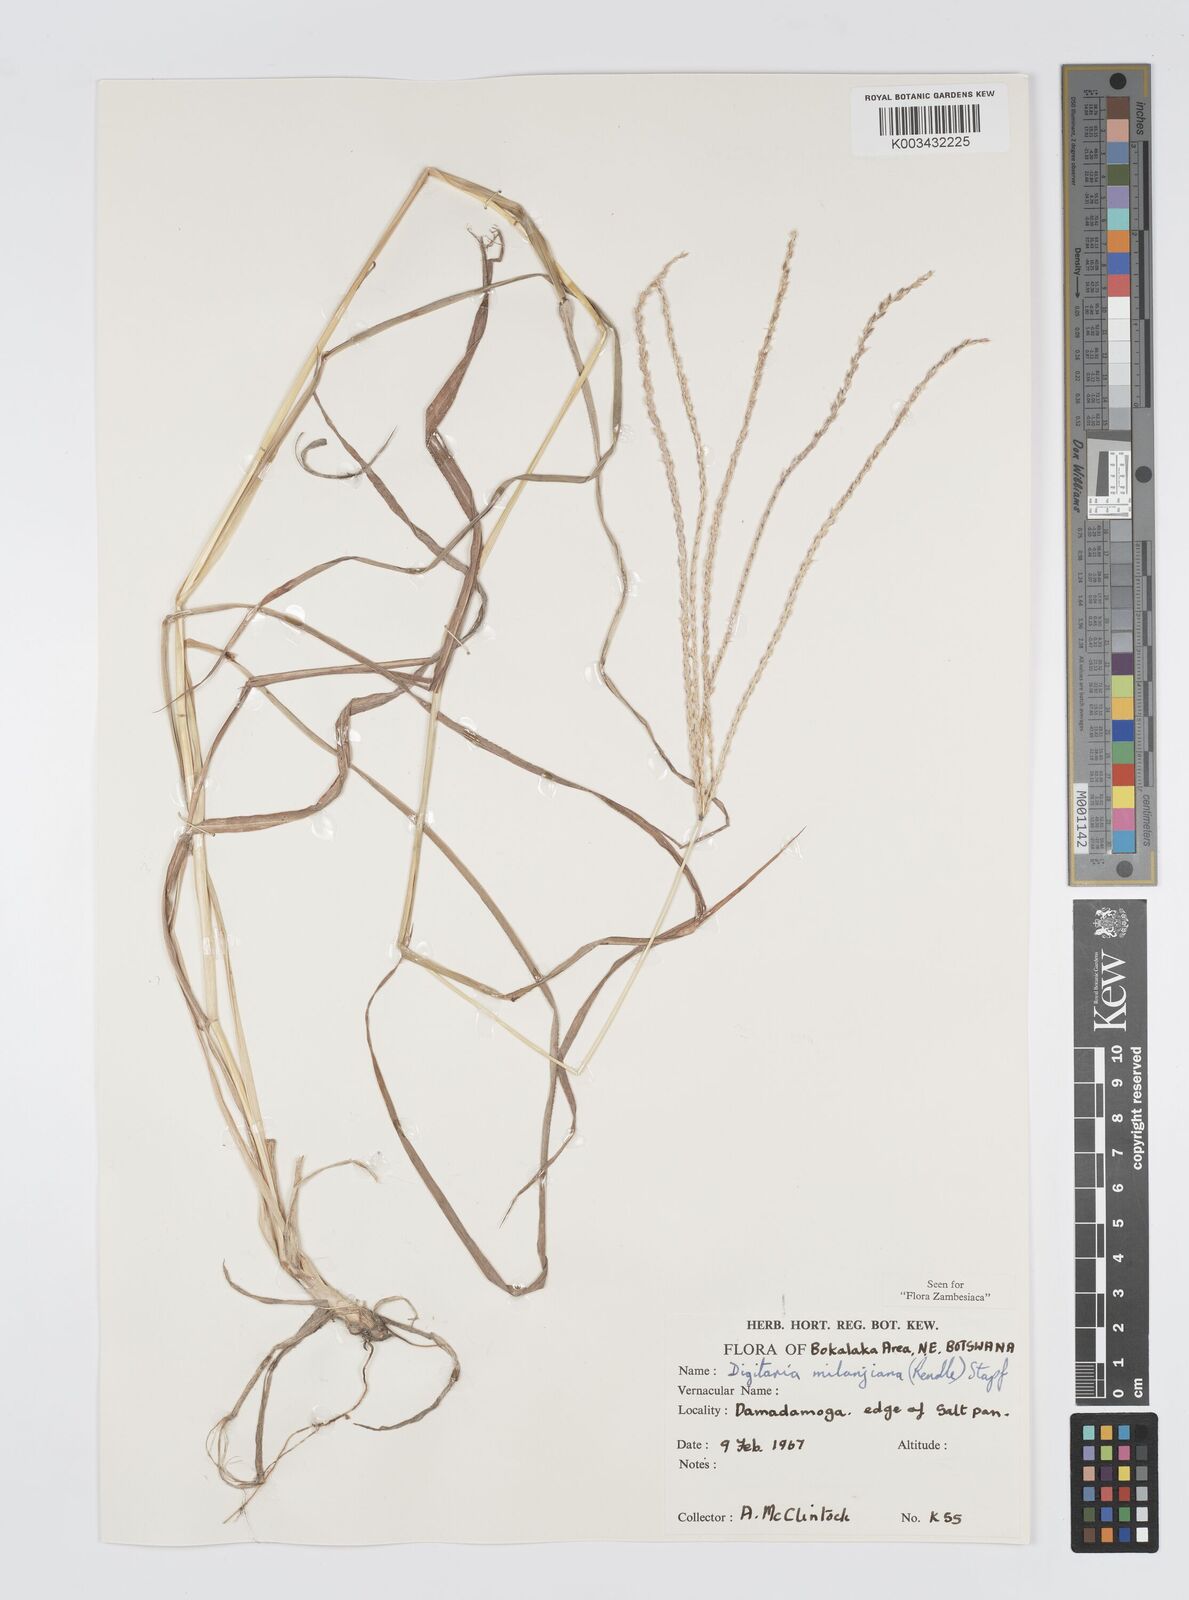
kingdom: Plantae
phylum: Tracheophyta
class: Liliopsida
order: Poales
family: Poaceae
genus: Digitaria
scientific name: Digitaria milanjiana
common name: Madagascar crabgrass
